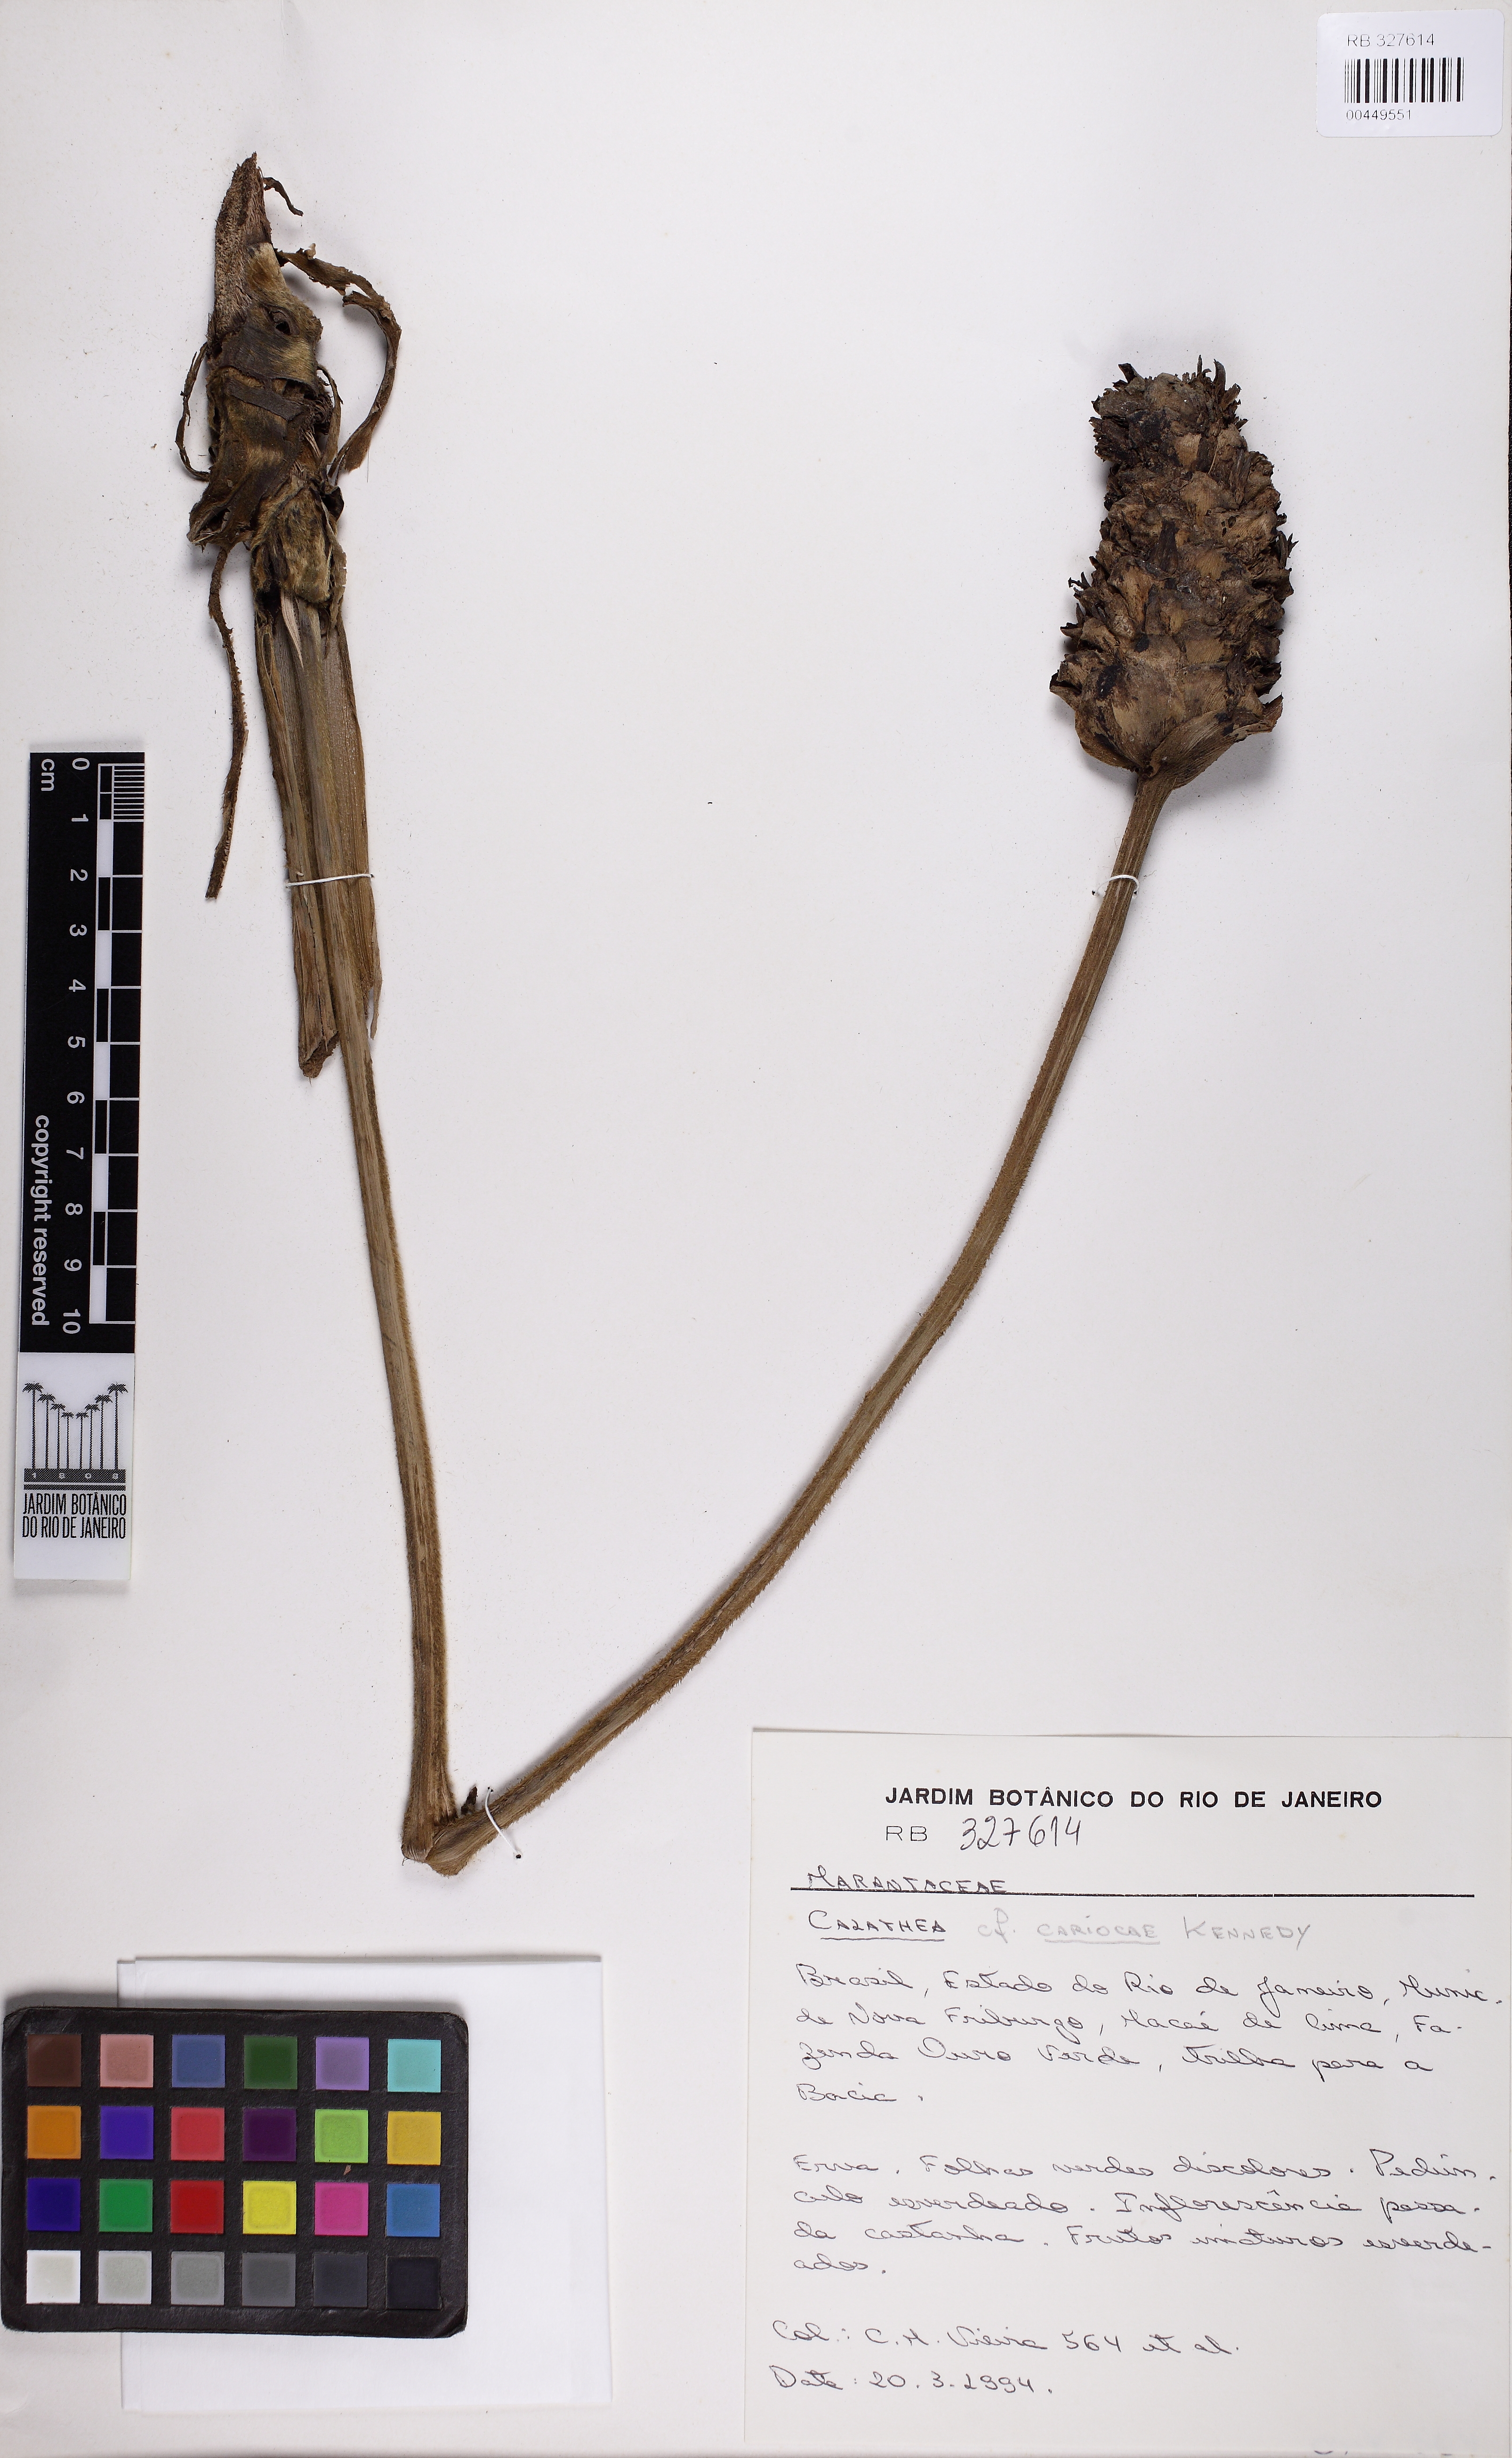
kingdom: Plantae
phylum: Tracheophyta
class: Liliopsida
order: Zingiberales
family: Marantaceae
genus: Calathea
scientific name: Calathea
